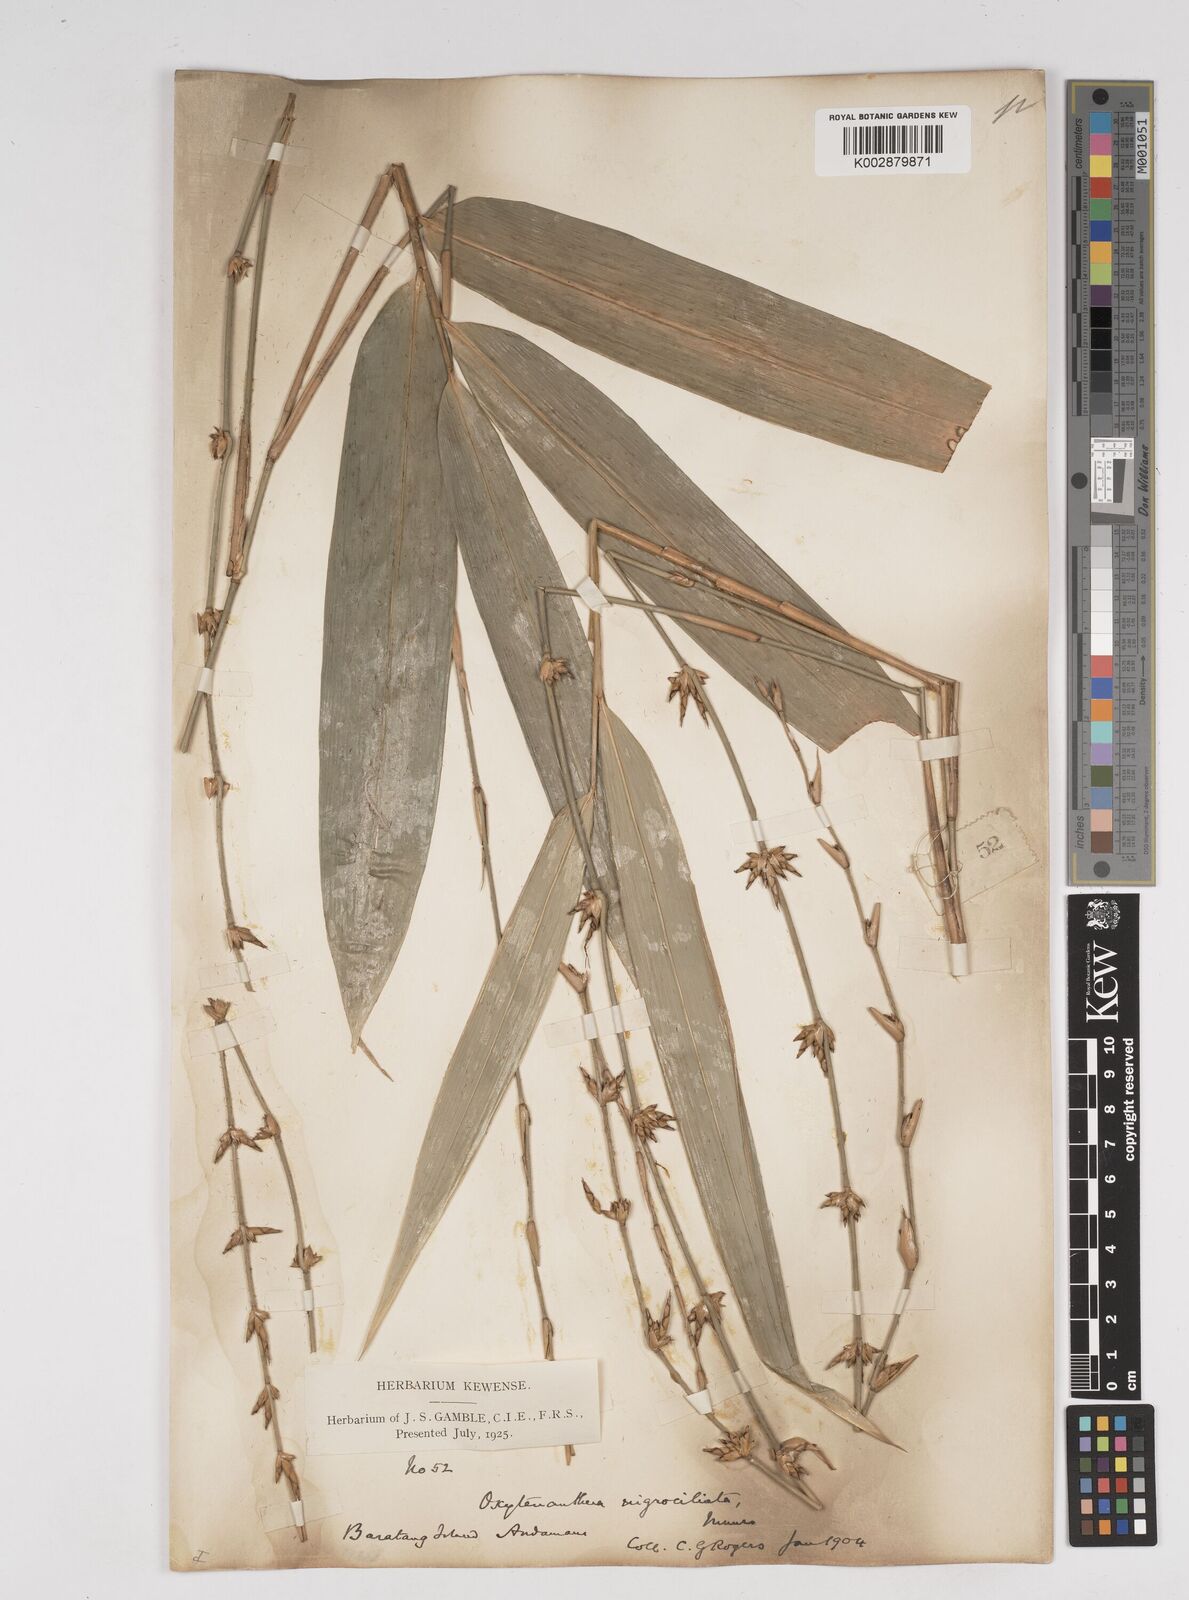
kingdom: Plantae
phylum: Tracheophyta
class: Liliopsida
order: Poales
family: Poaceae
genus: Gigantochloa
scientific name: Gigantochloa
